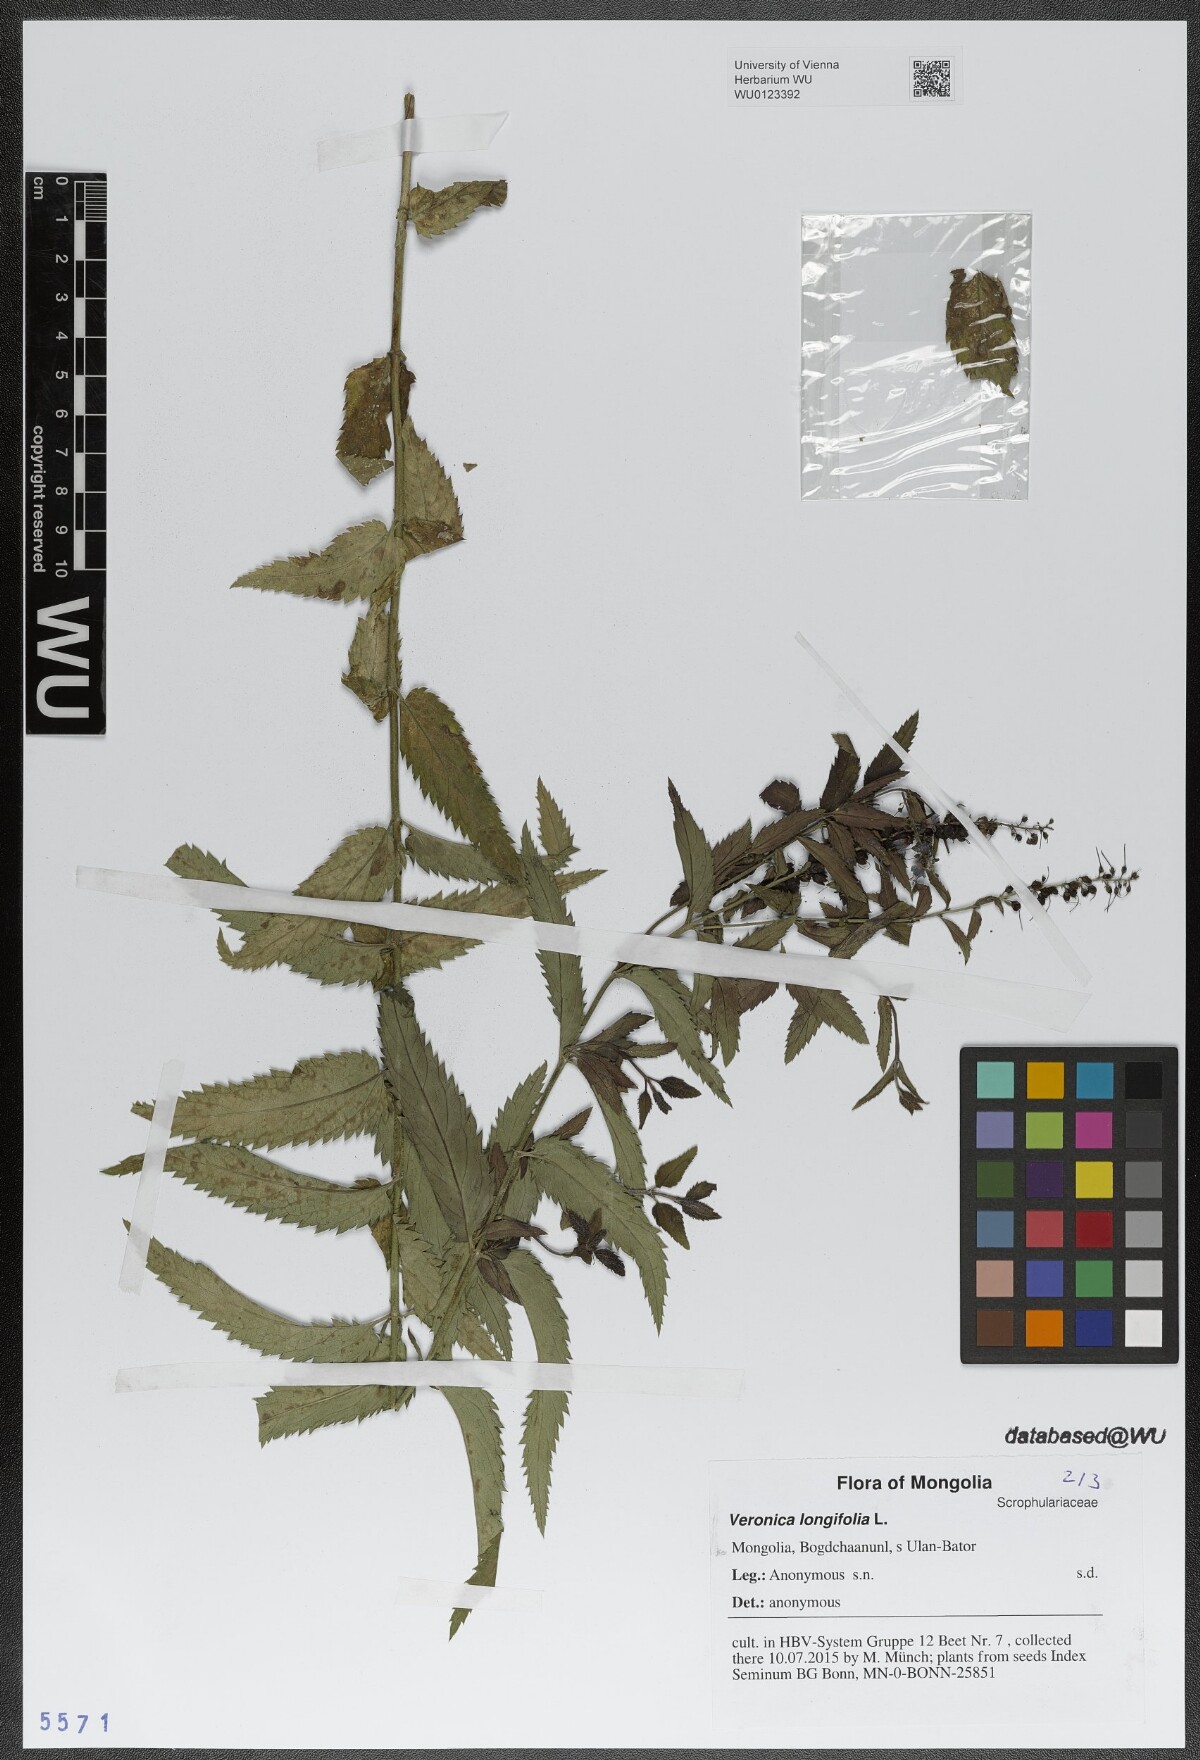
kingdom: Plantae
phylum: Tracheophyta
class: Magnoliopsida
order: Lamiales
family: Plantaginaceae
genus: Veronica
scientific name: Veronica longifolia
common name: Garden speedwell
